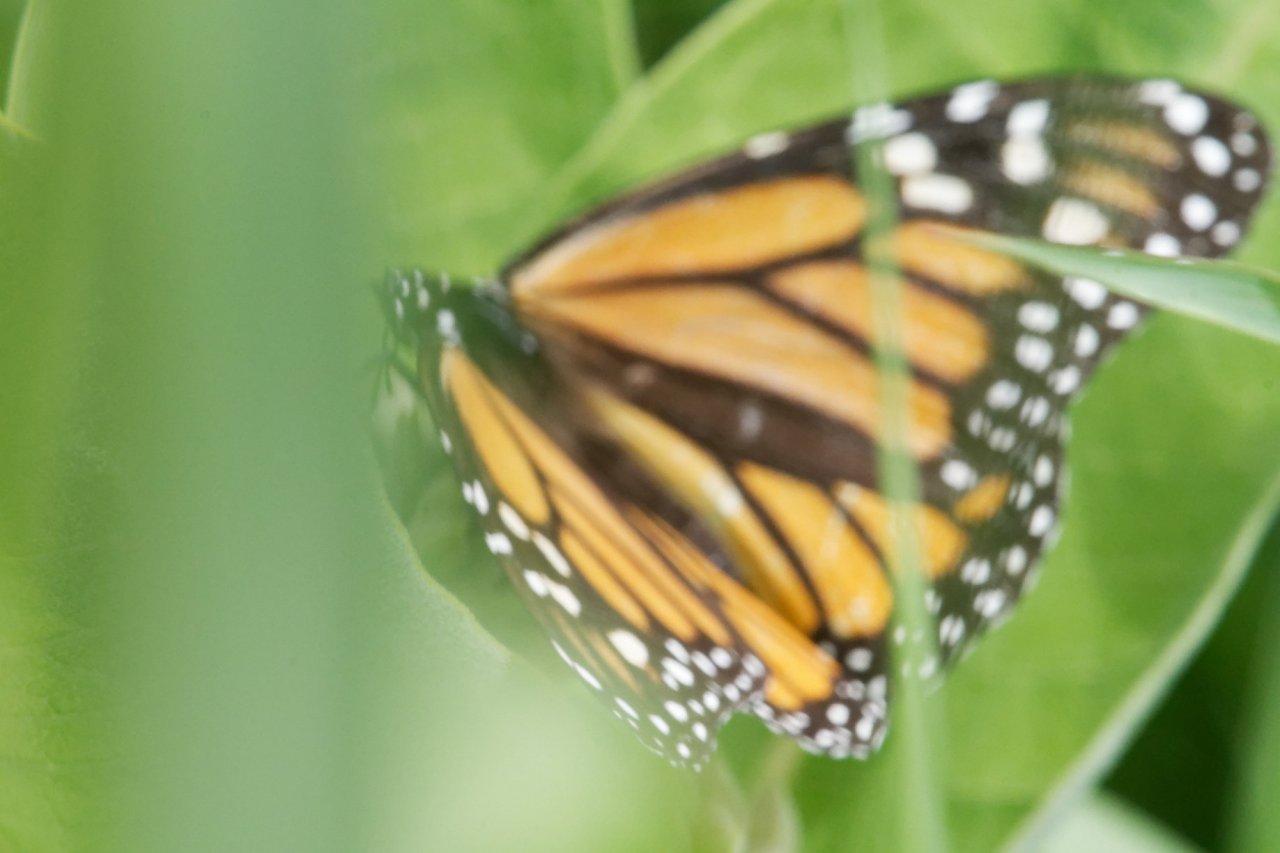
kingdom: Animalia
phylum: Arthropoda
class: Insecta
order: Lepidoptera
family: Nymphalidae
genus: Danaus
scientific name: Danaus plexippus
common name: Monarch
